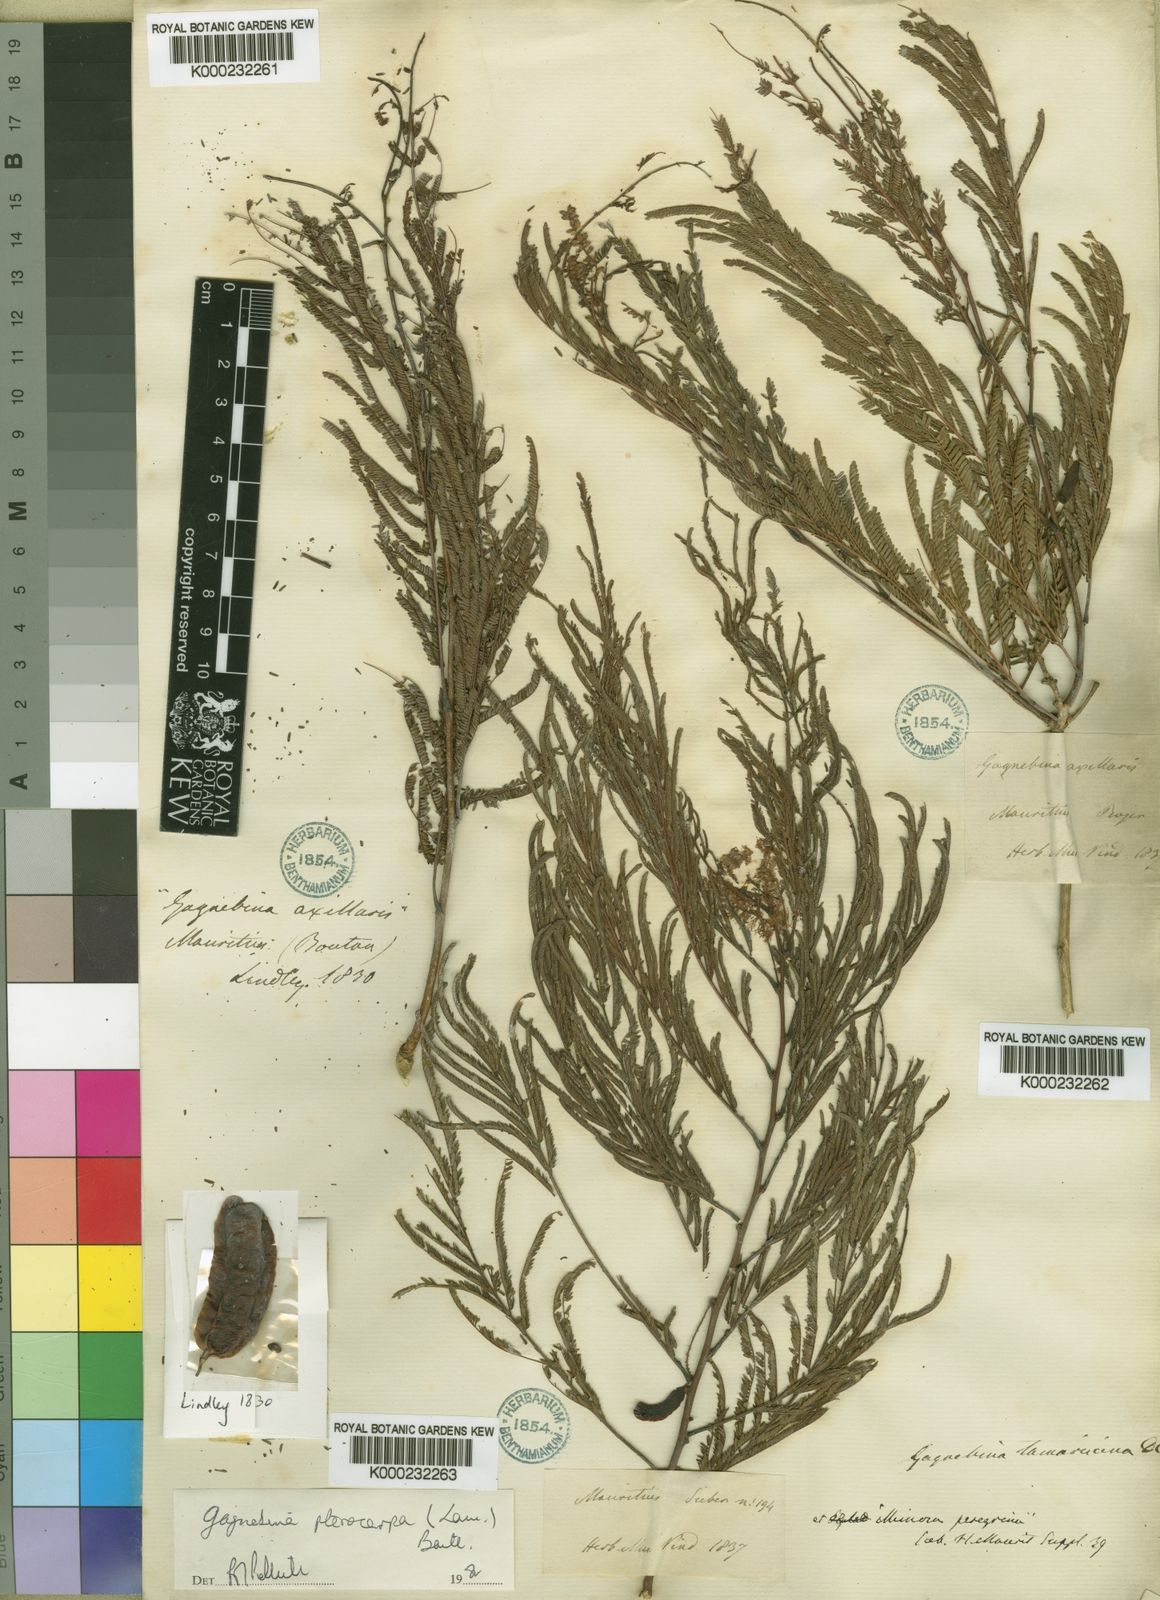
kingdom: Plantae
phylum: Tracheophyta
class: Magnoliopsida
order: Fabales
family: Fabaceae
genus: Gagnebina
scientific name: Gagnebina pterocarpa
